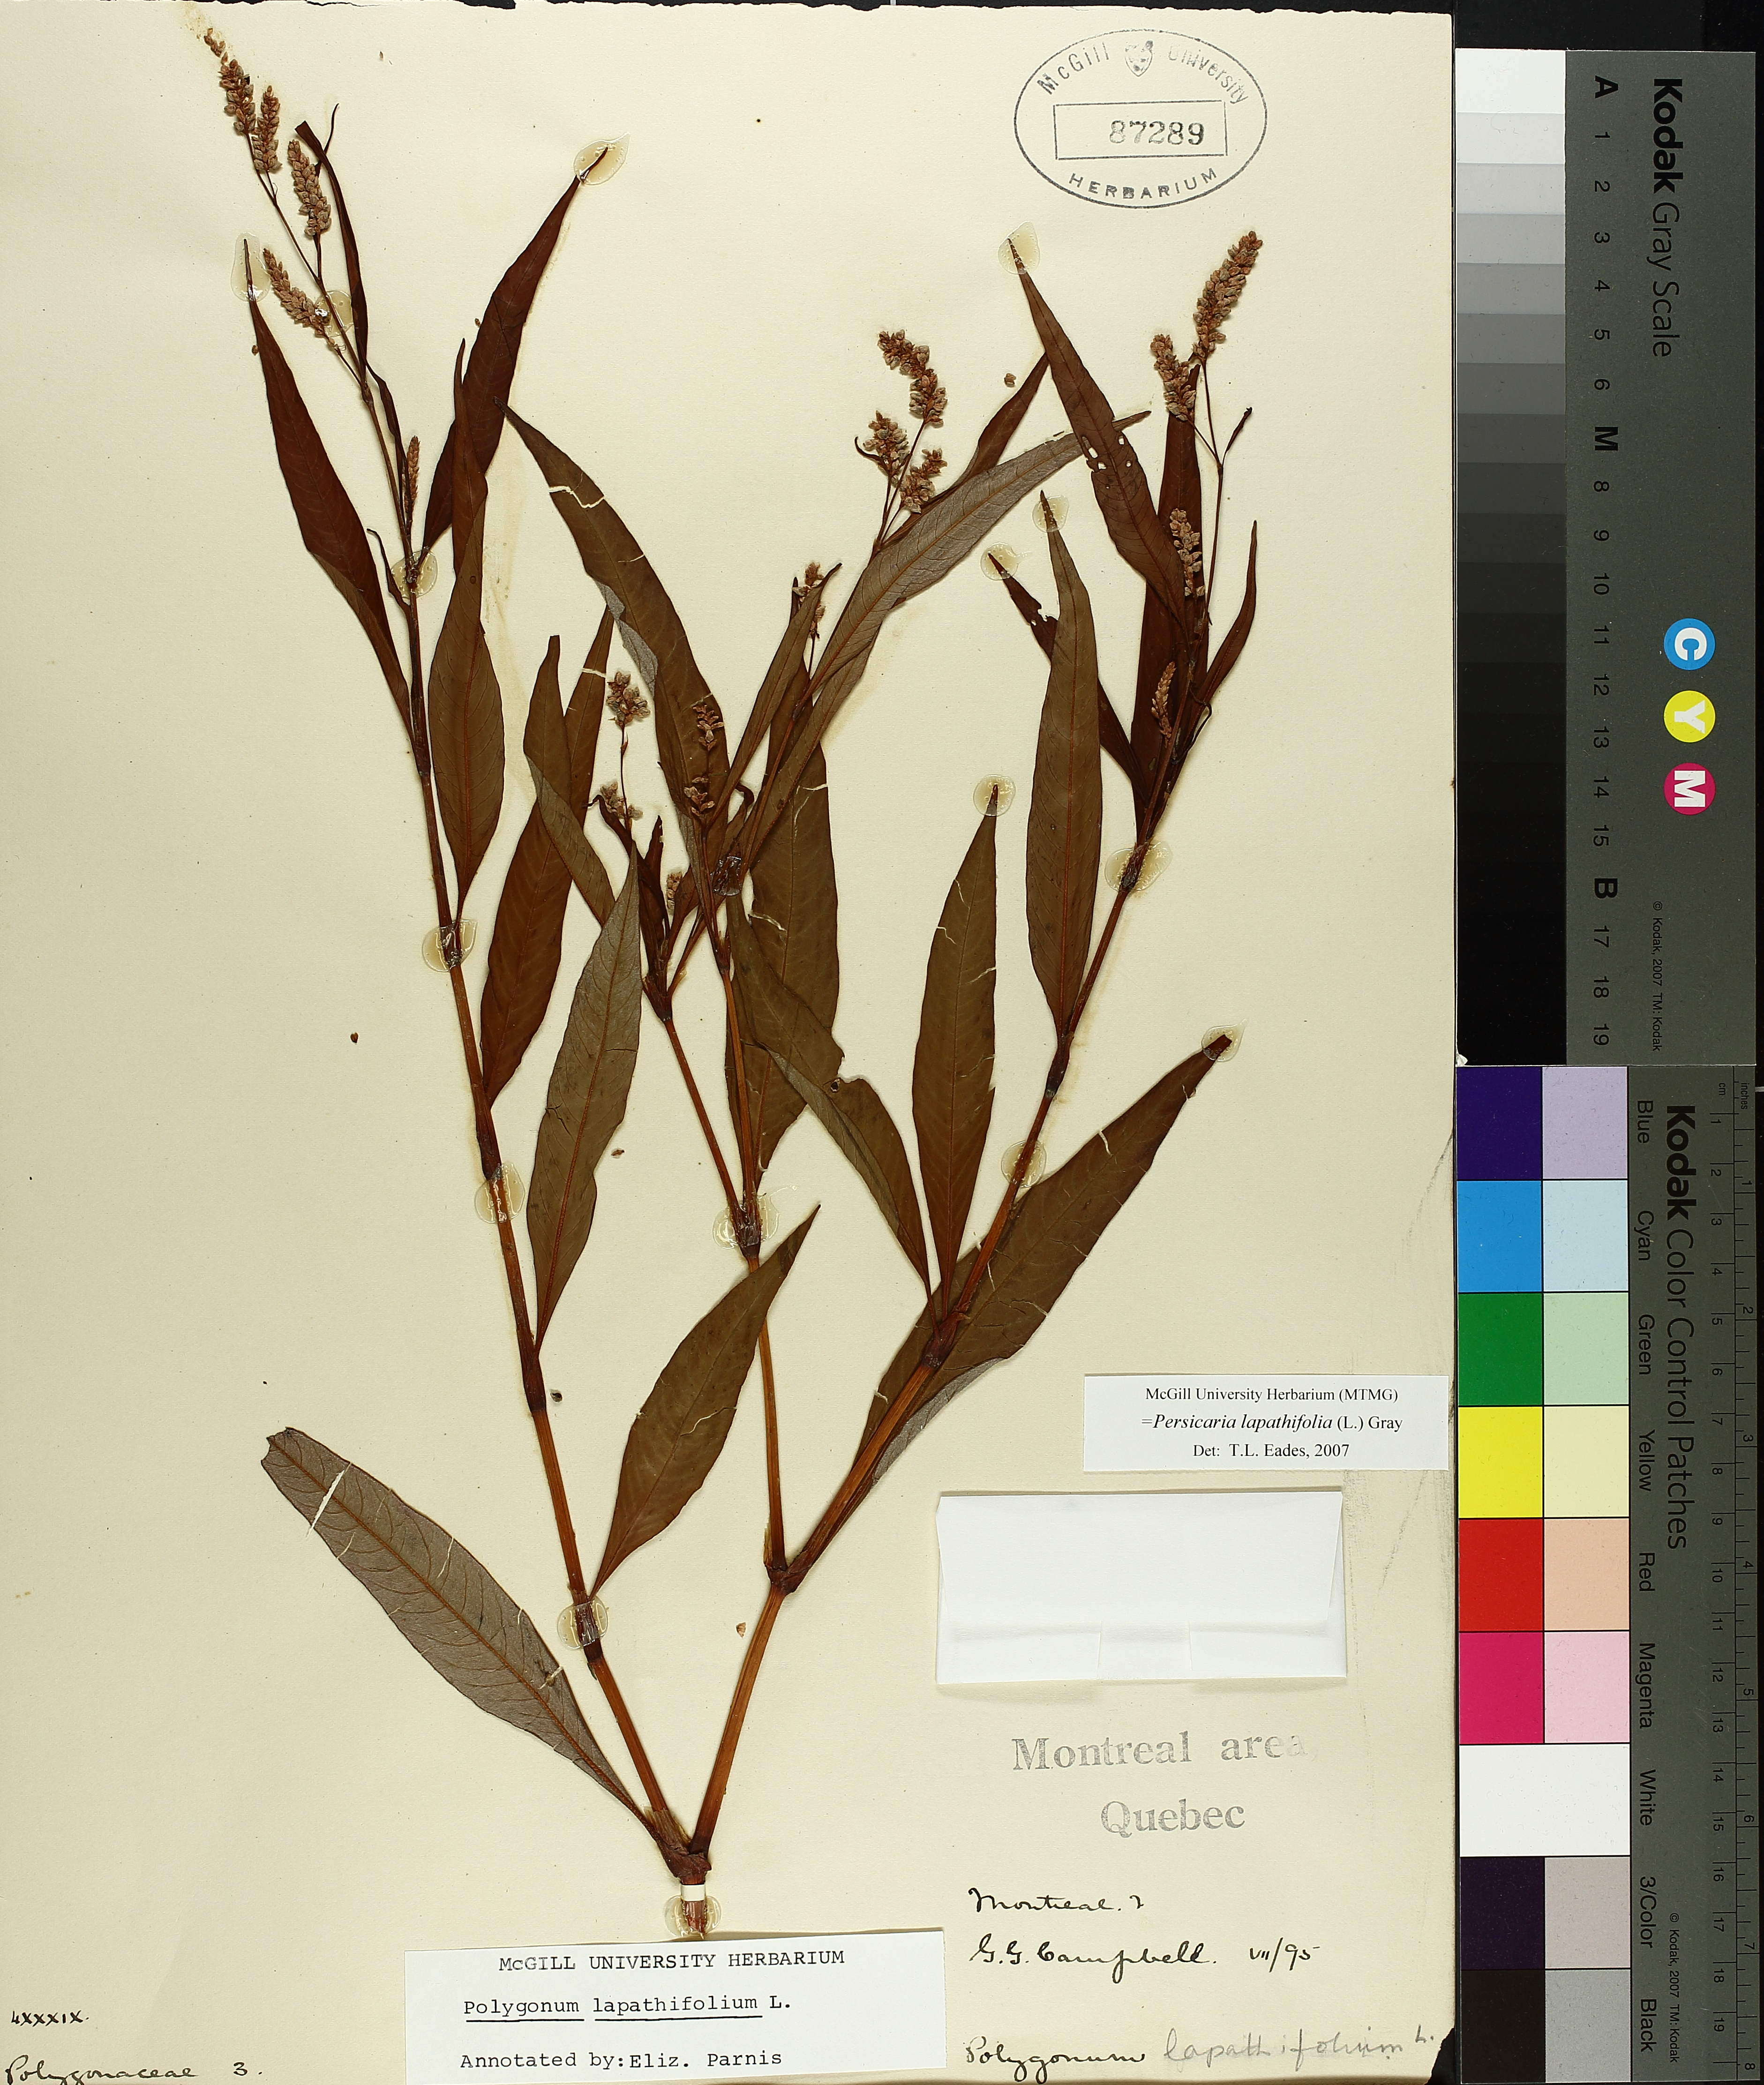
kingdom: Plantae
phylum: Tracheophyta
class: Magnoliopsida
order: Caryophyllales
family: Polygonaceae
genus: Persicaria
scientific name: Persicaria lapathifolia
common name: Curlytop knotweed
